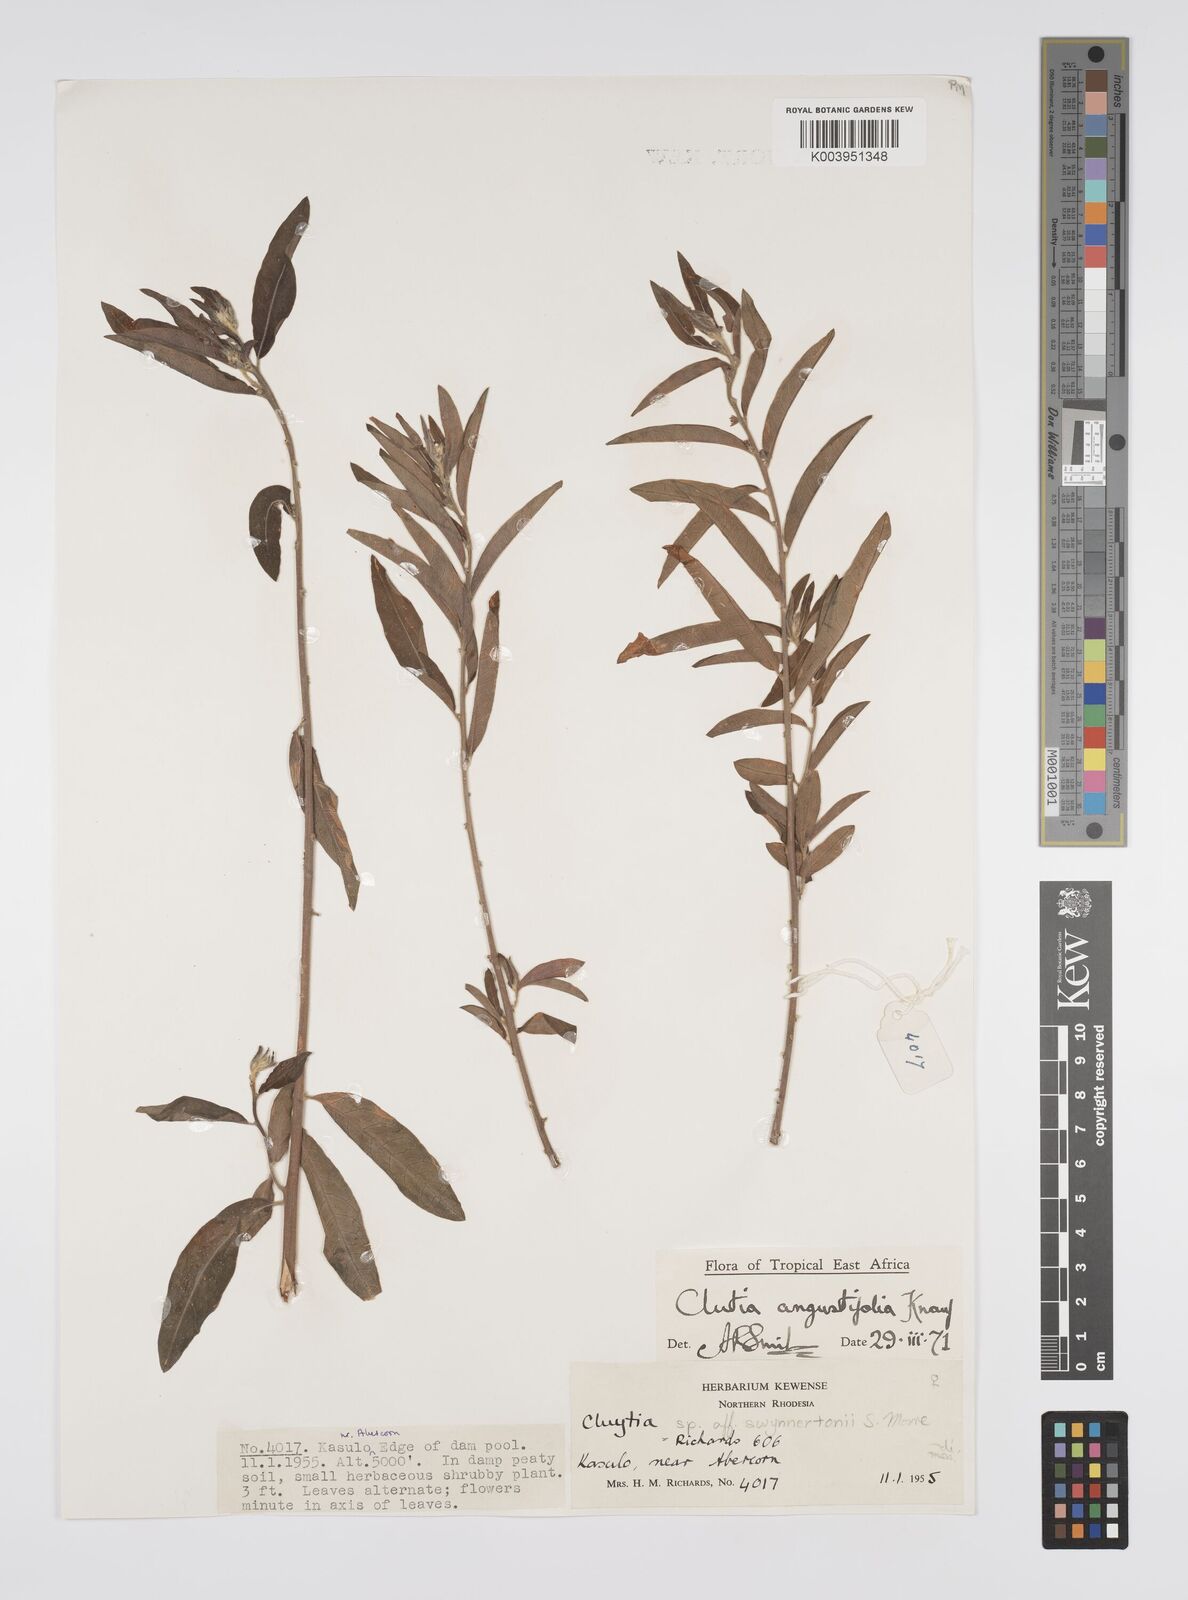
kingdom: Plantae
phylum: Tracheophyta
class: Magnoliopsida
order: Malpighiales
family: Peraceae
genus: Clutia
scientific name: Clutia angustifolia
